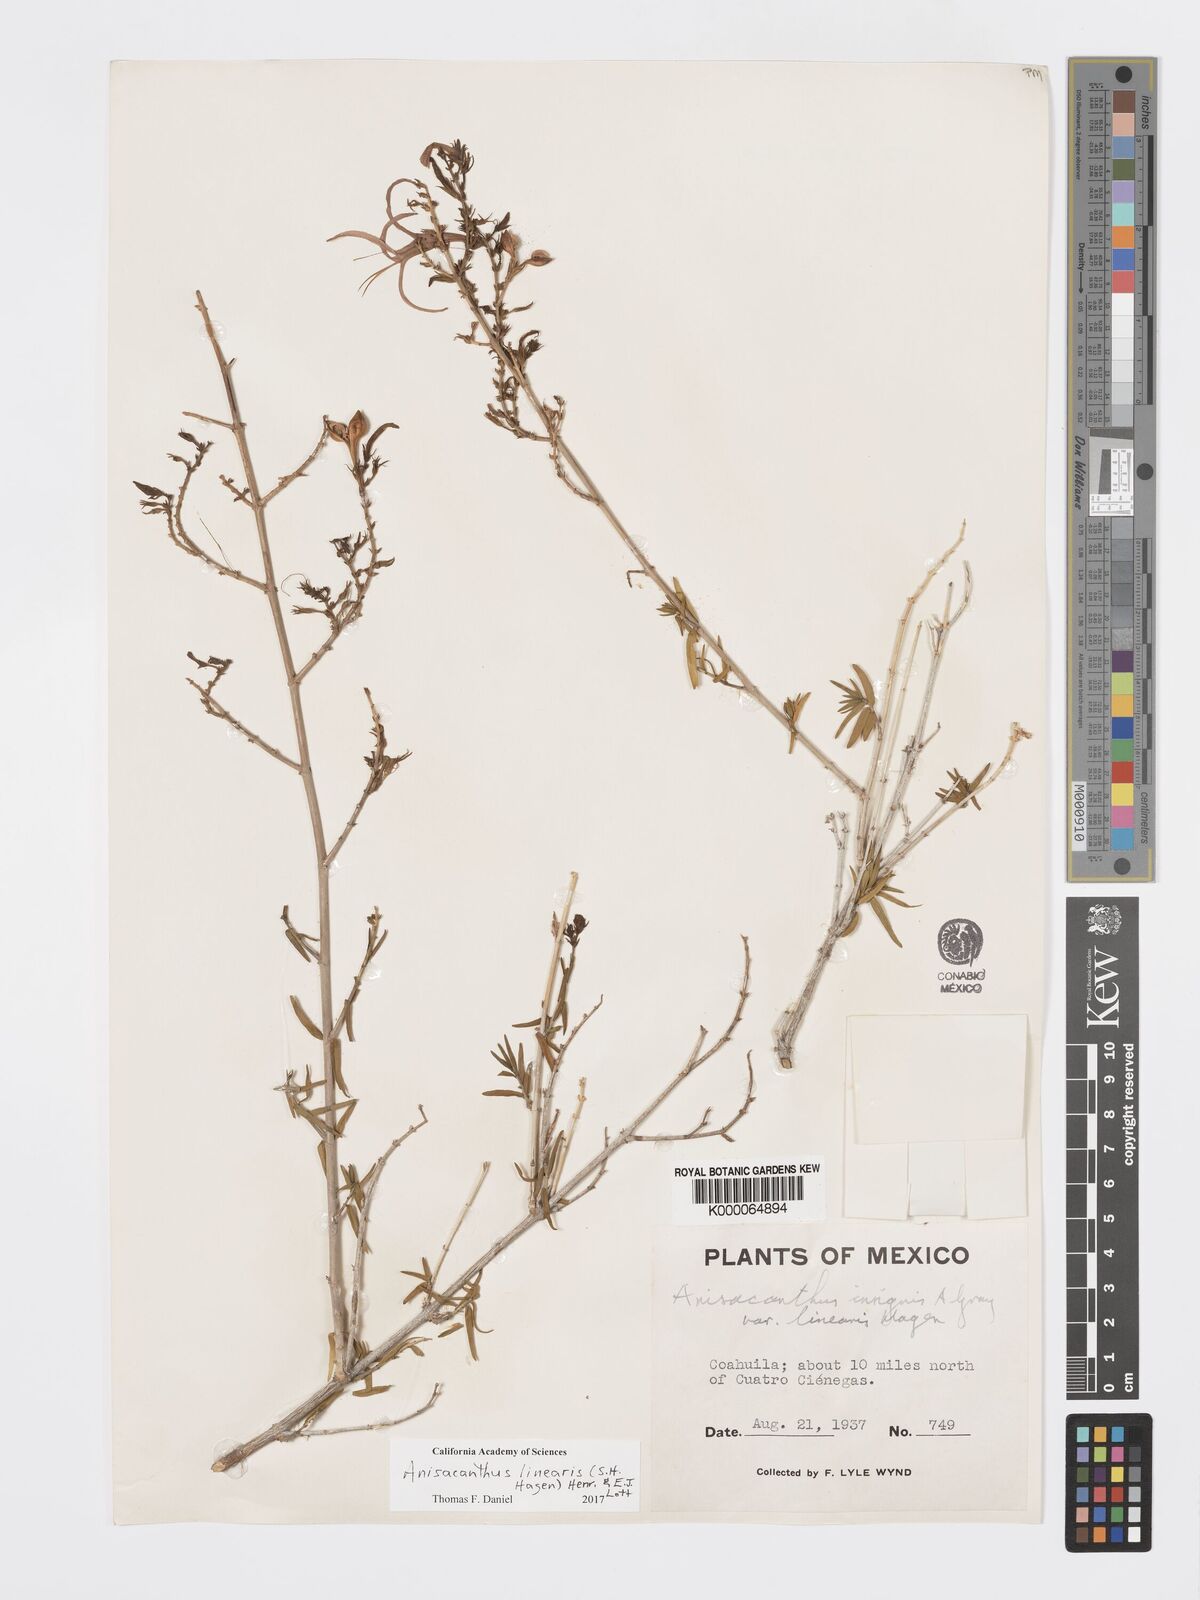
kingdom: Plantae
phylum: Tracheophyta
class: Magnoliopsida
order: Lamiales
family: Acanthaceae
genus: Anisacanthus
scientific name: Anisacanthus linearis
